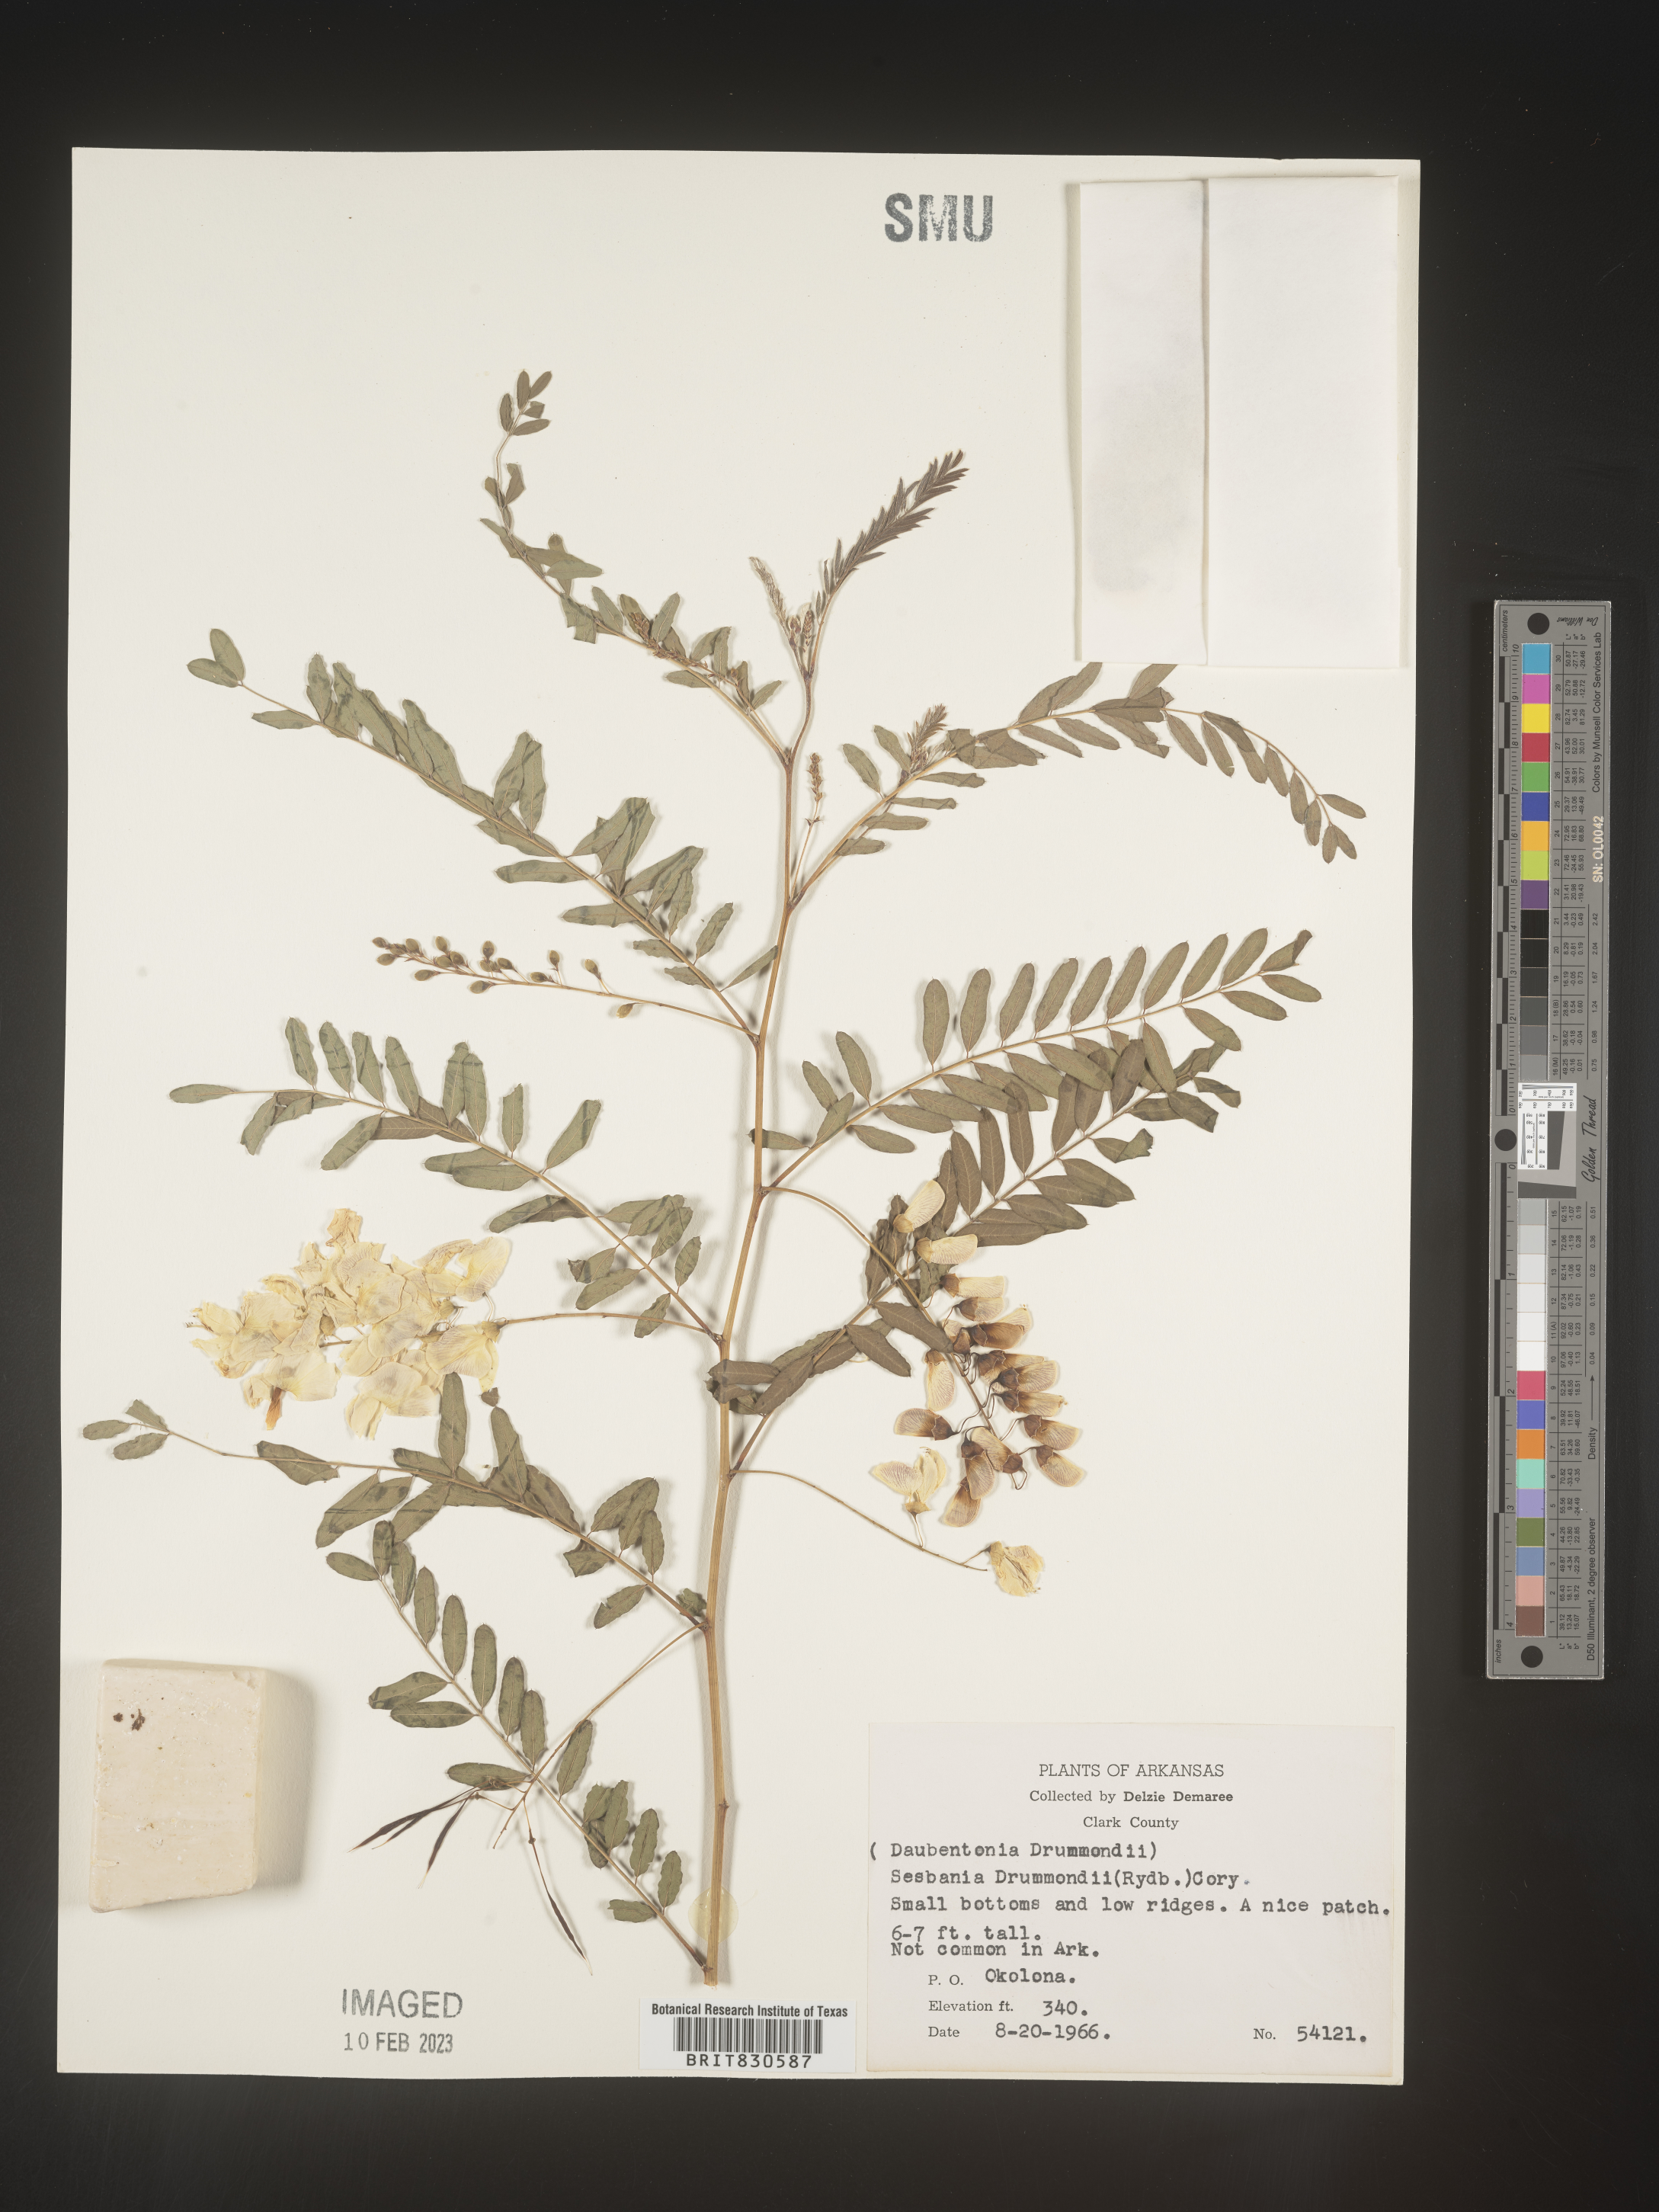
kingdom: Plantae
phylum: Tracheophyta
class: Magnoliopsida
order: Fabales
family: Fabaceae
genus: Sesbania
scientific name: Sesbania drummondii
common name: Poison-bean
